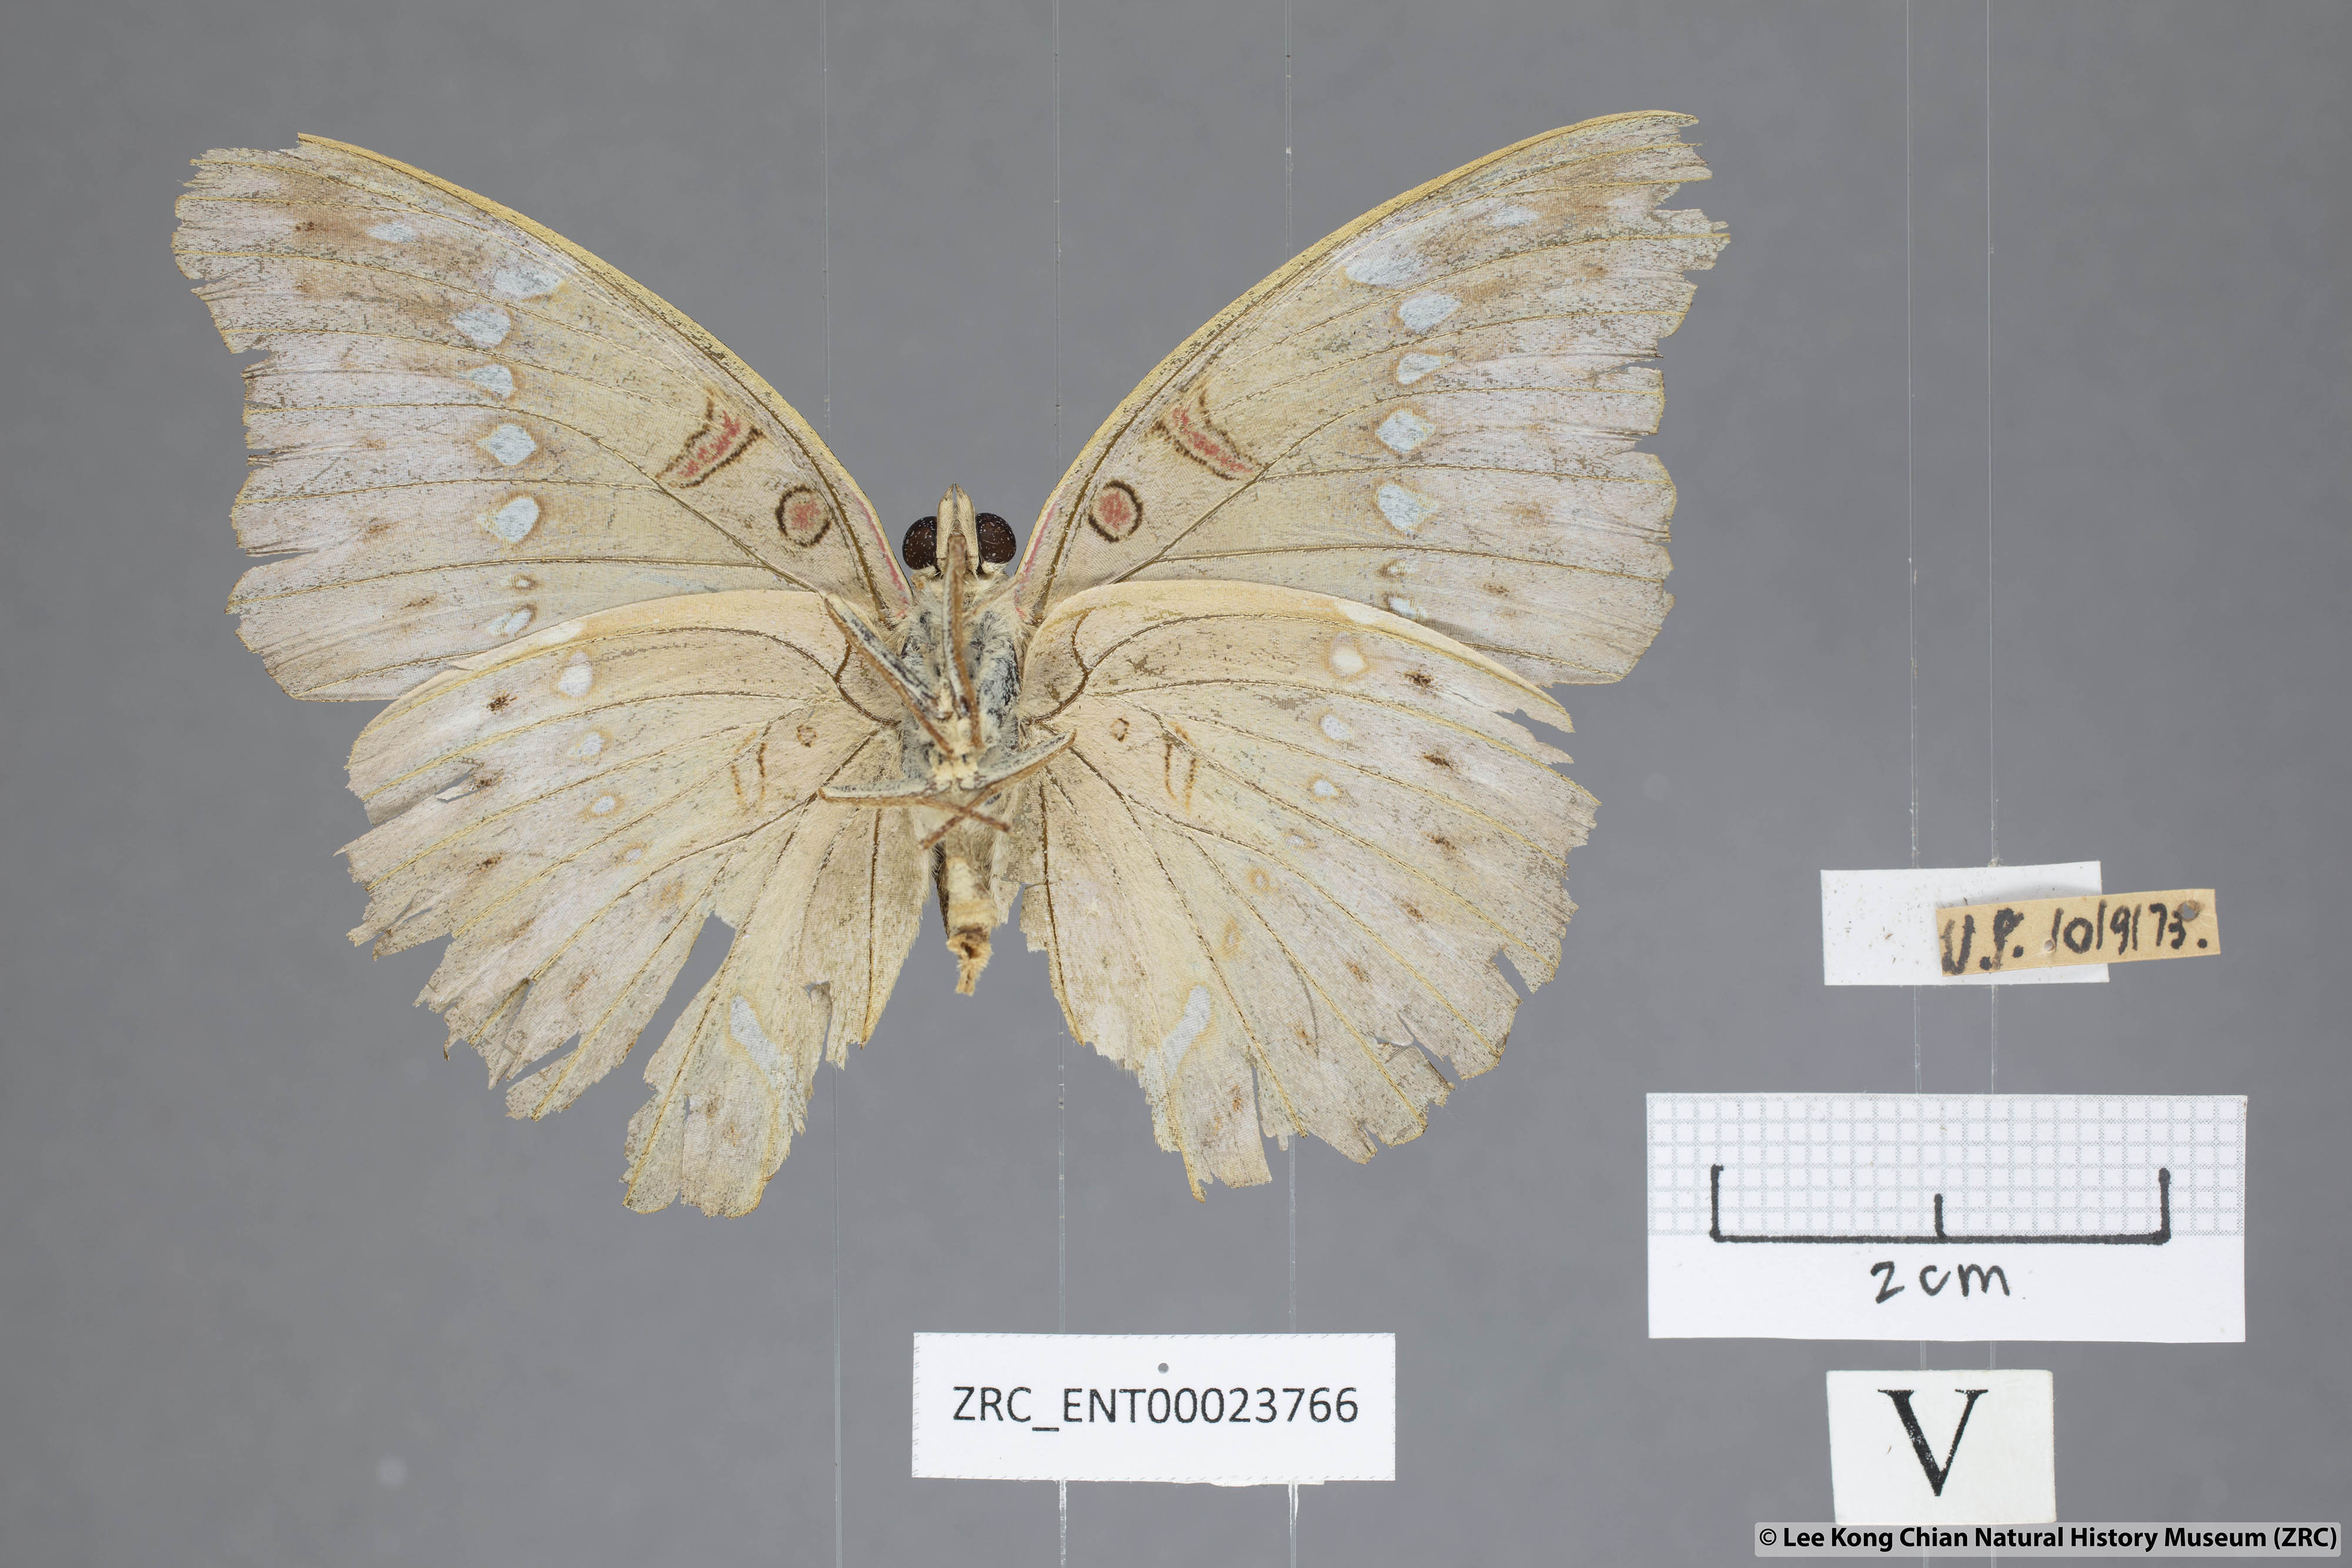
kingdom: Animalia
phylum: Arthropoda
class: Insecta
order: Lepidoptera
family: Nymphalidae
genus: Euthalia
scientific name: Euthalia Bassarona teuta
